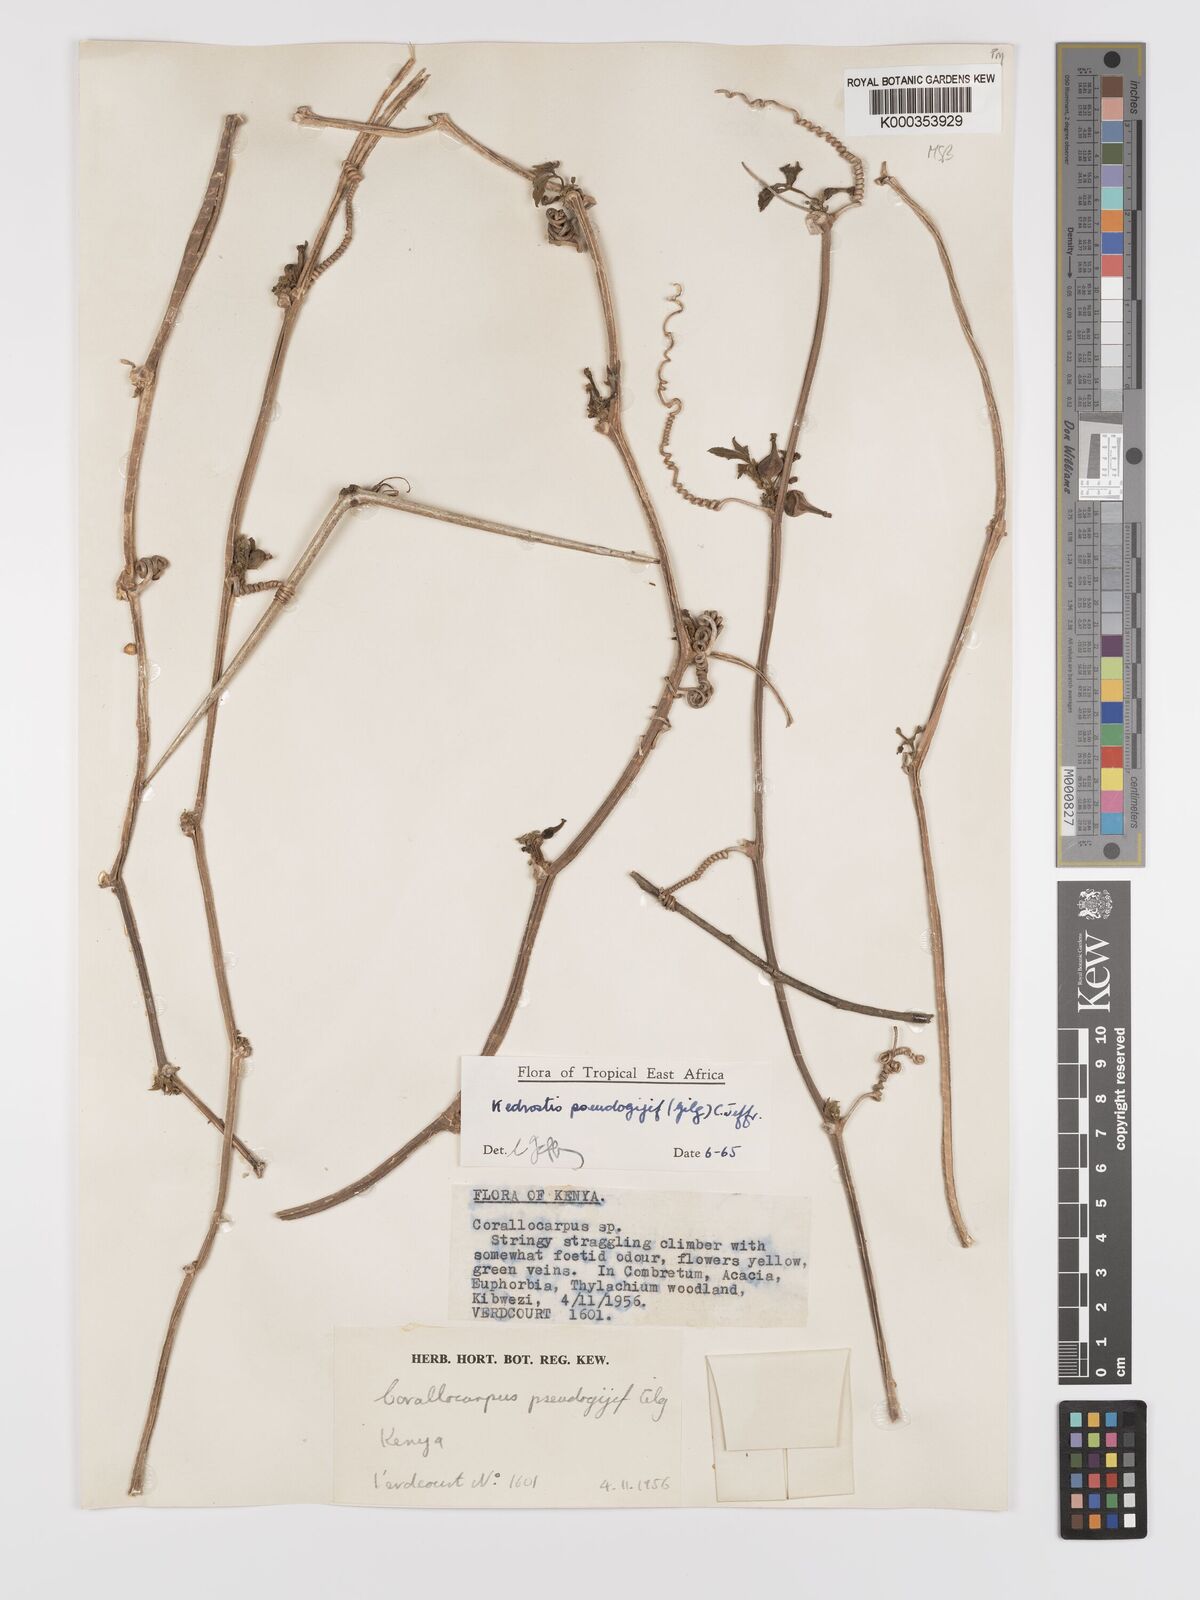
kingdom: Plantae
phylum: Tracheophyta
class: Magnoliopsida
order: Cucurbitales
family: Cucurbitaceae
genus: Kedrostis
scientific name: Kedrostis pseudogijef
